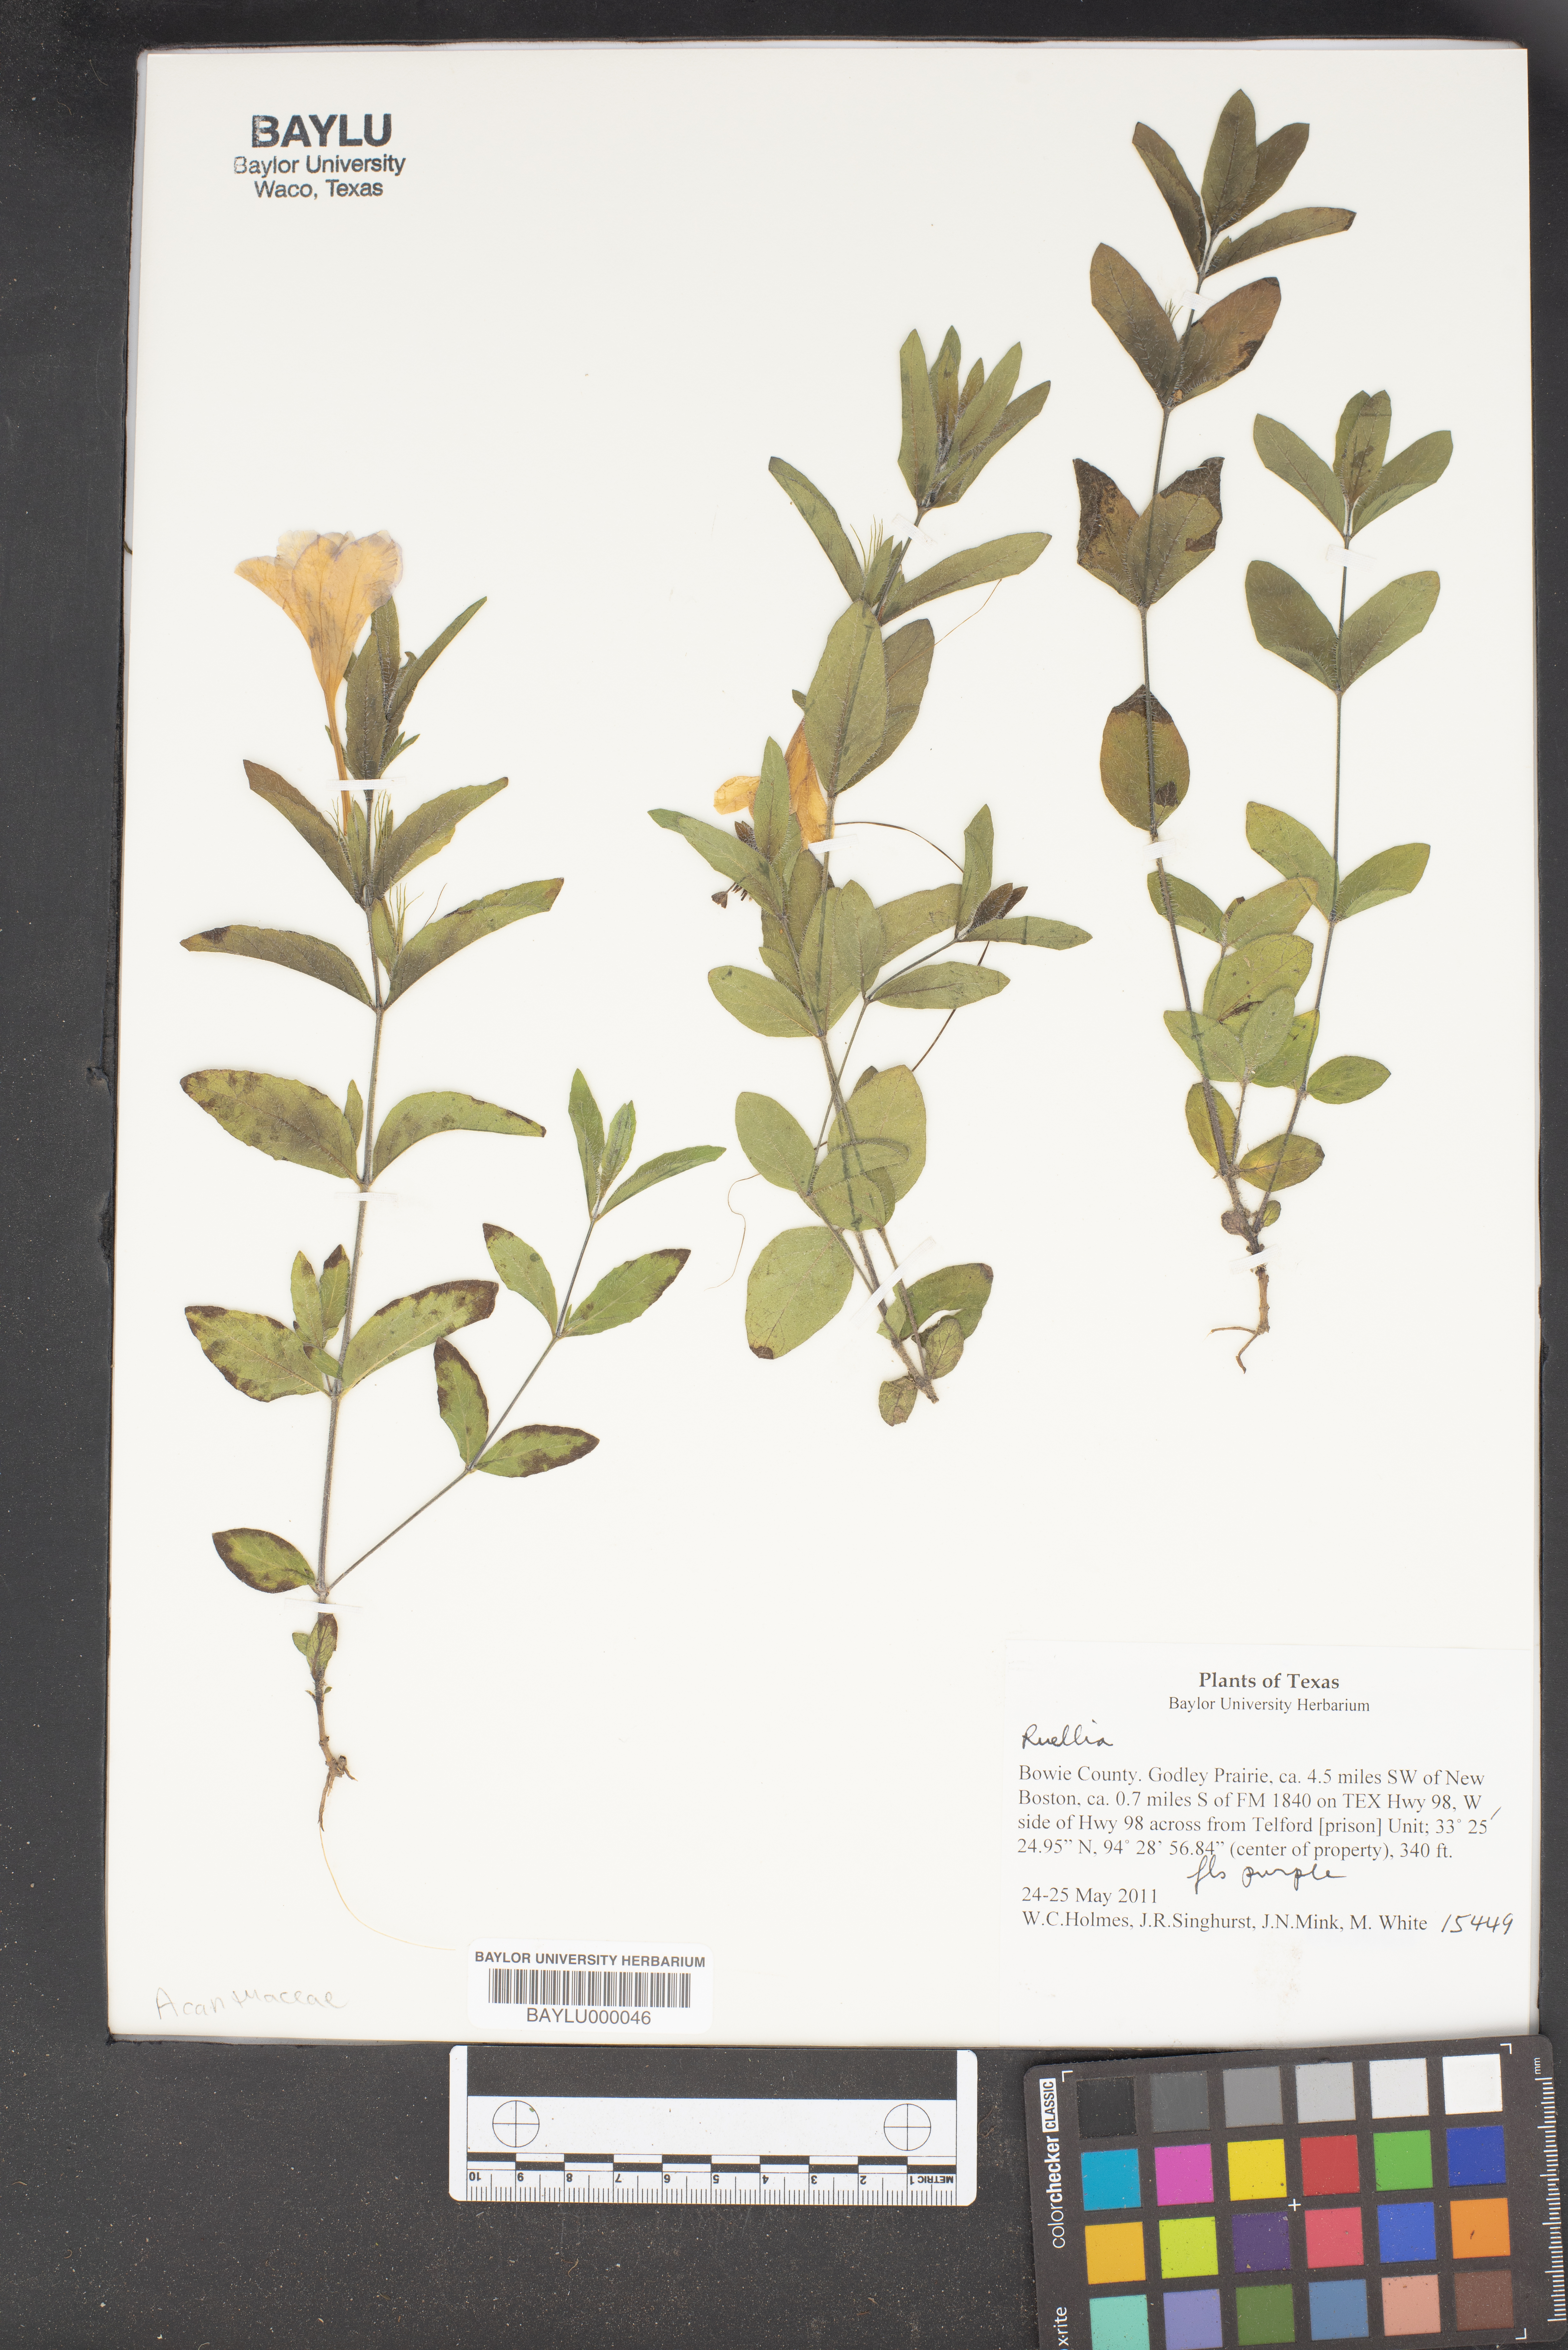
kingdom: Plantae
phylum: Tracheophyta
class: Magnoliopsida
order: Lamiales
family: Acanthaceae
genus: Ruellia
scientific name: Ruellia
